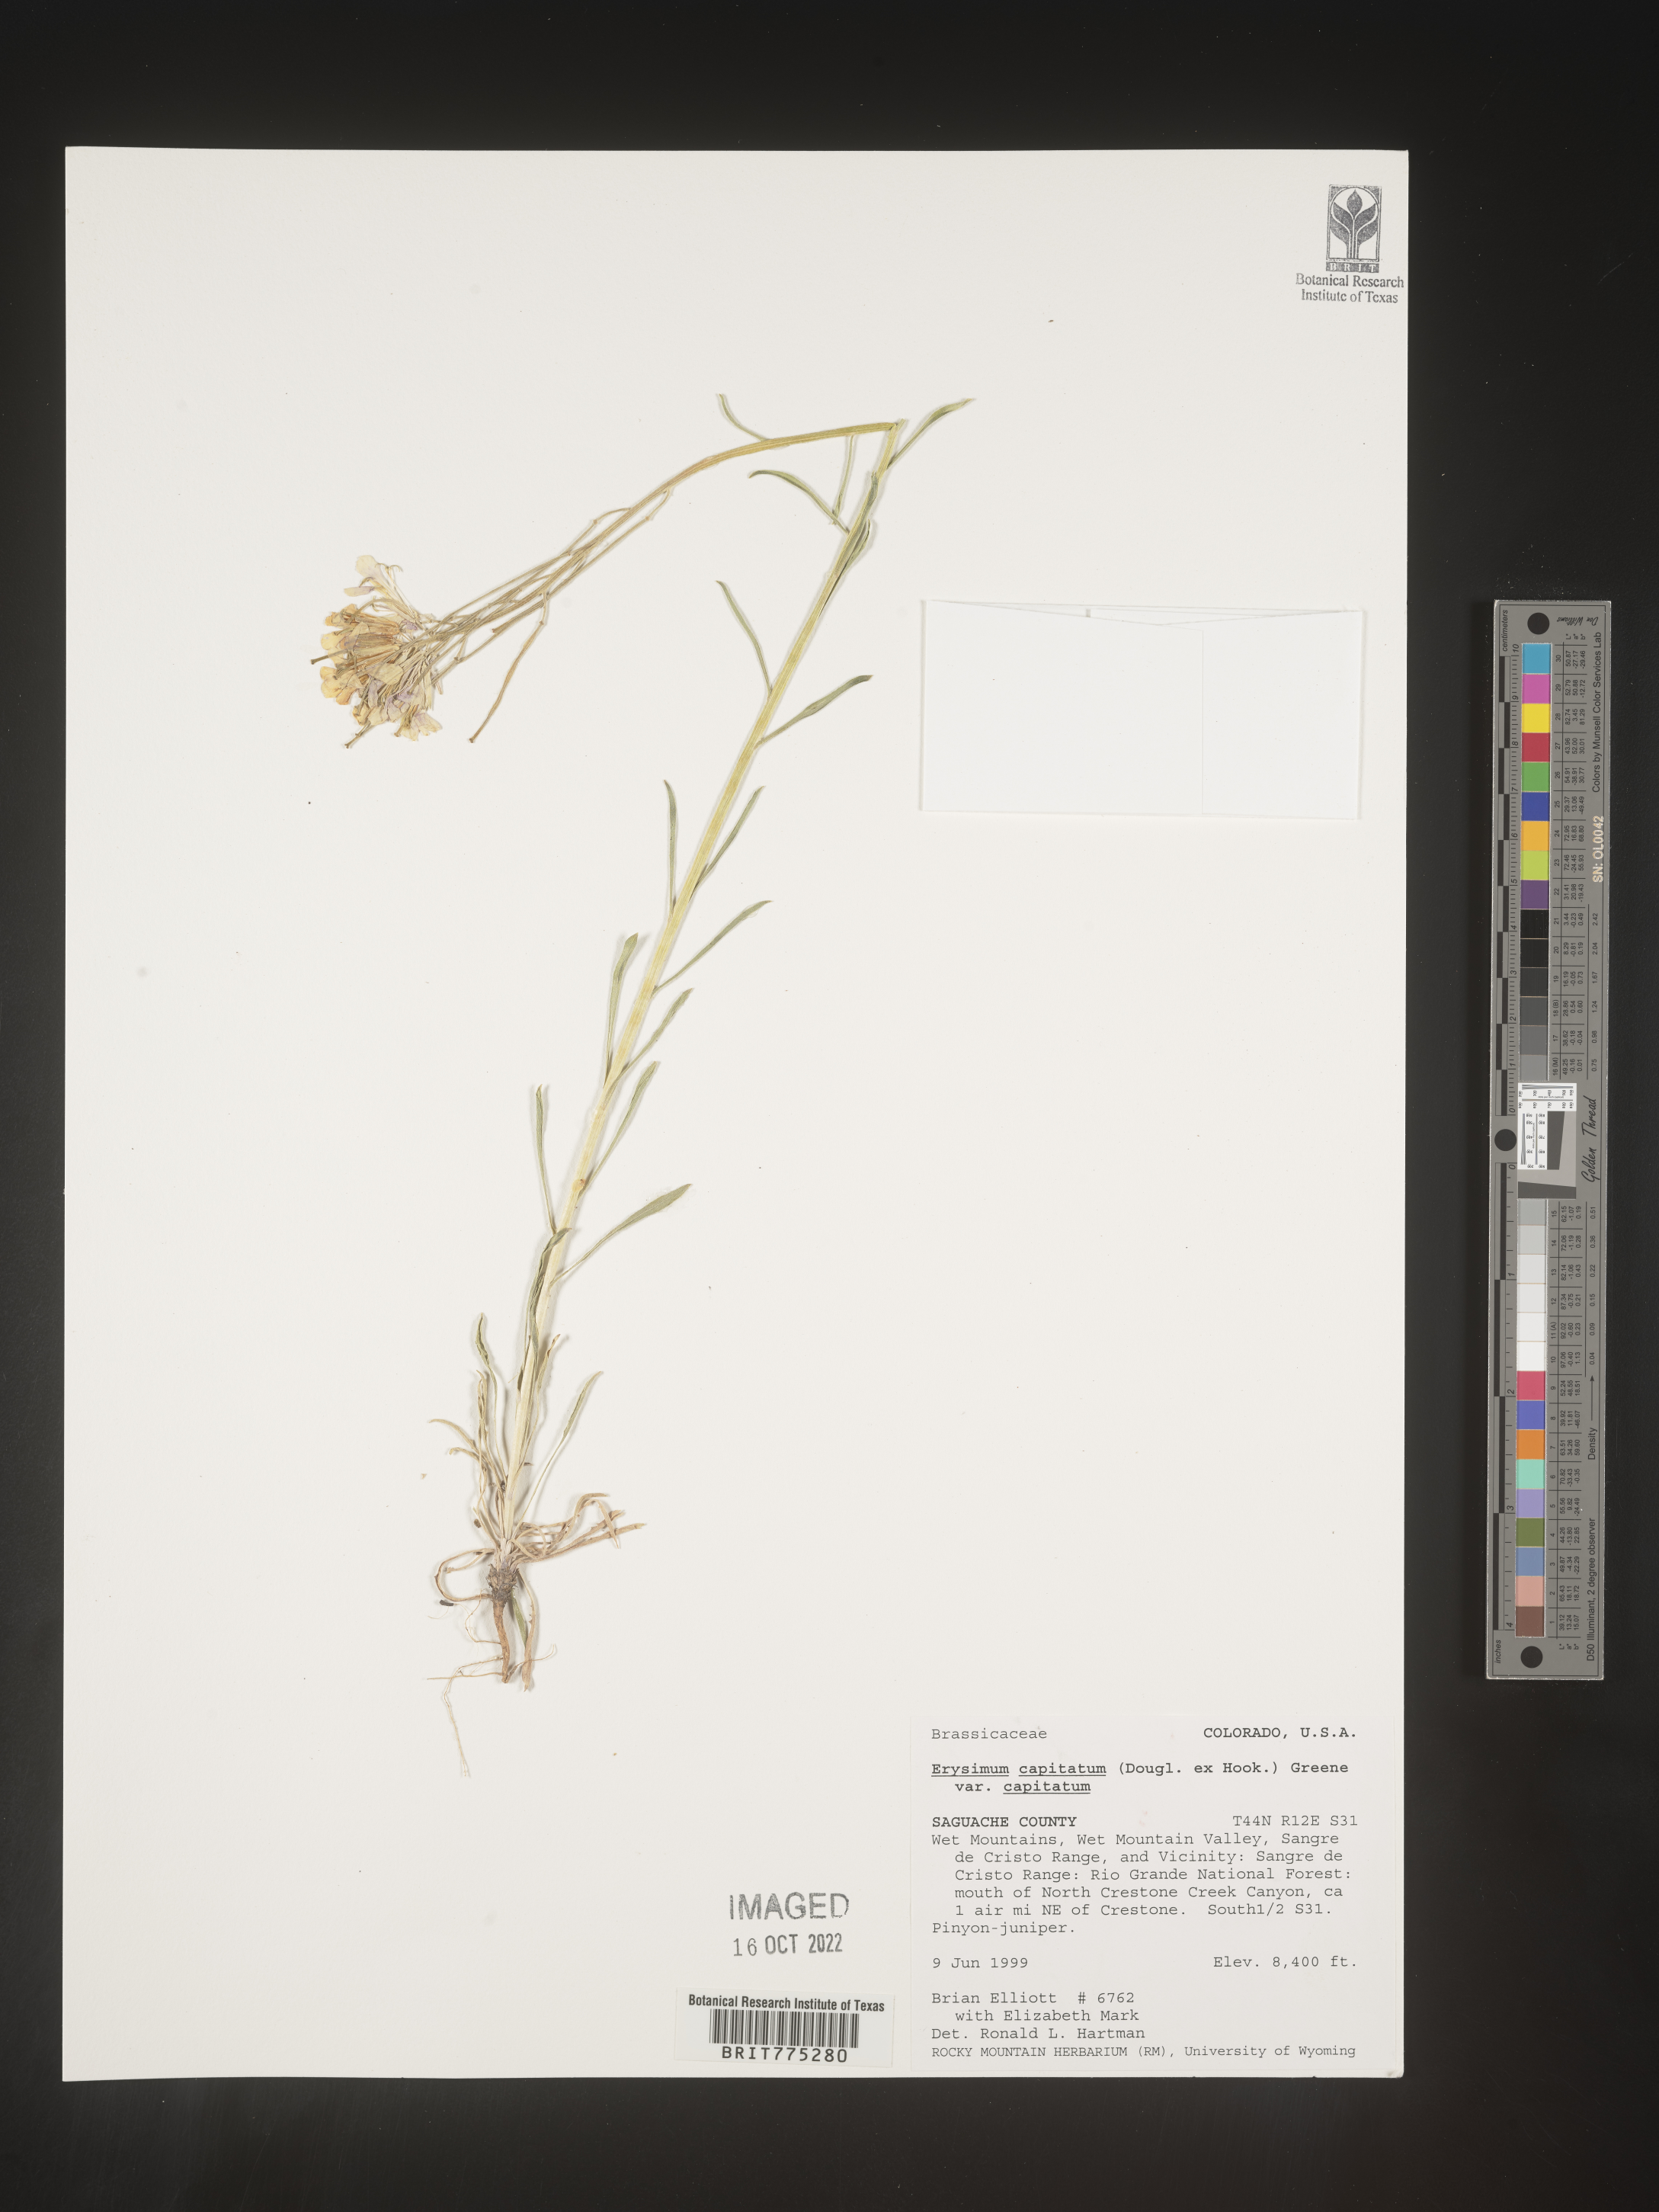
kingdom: Plantae
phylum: Tracheophyta
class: Magnoliopsida
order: Brassicales
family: Brassicaceae
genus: Erysimum
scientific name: Erysimum capitatum
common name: Western wallflower
